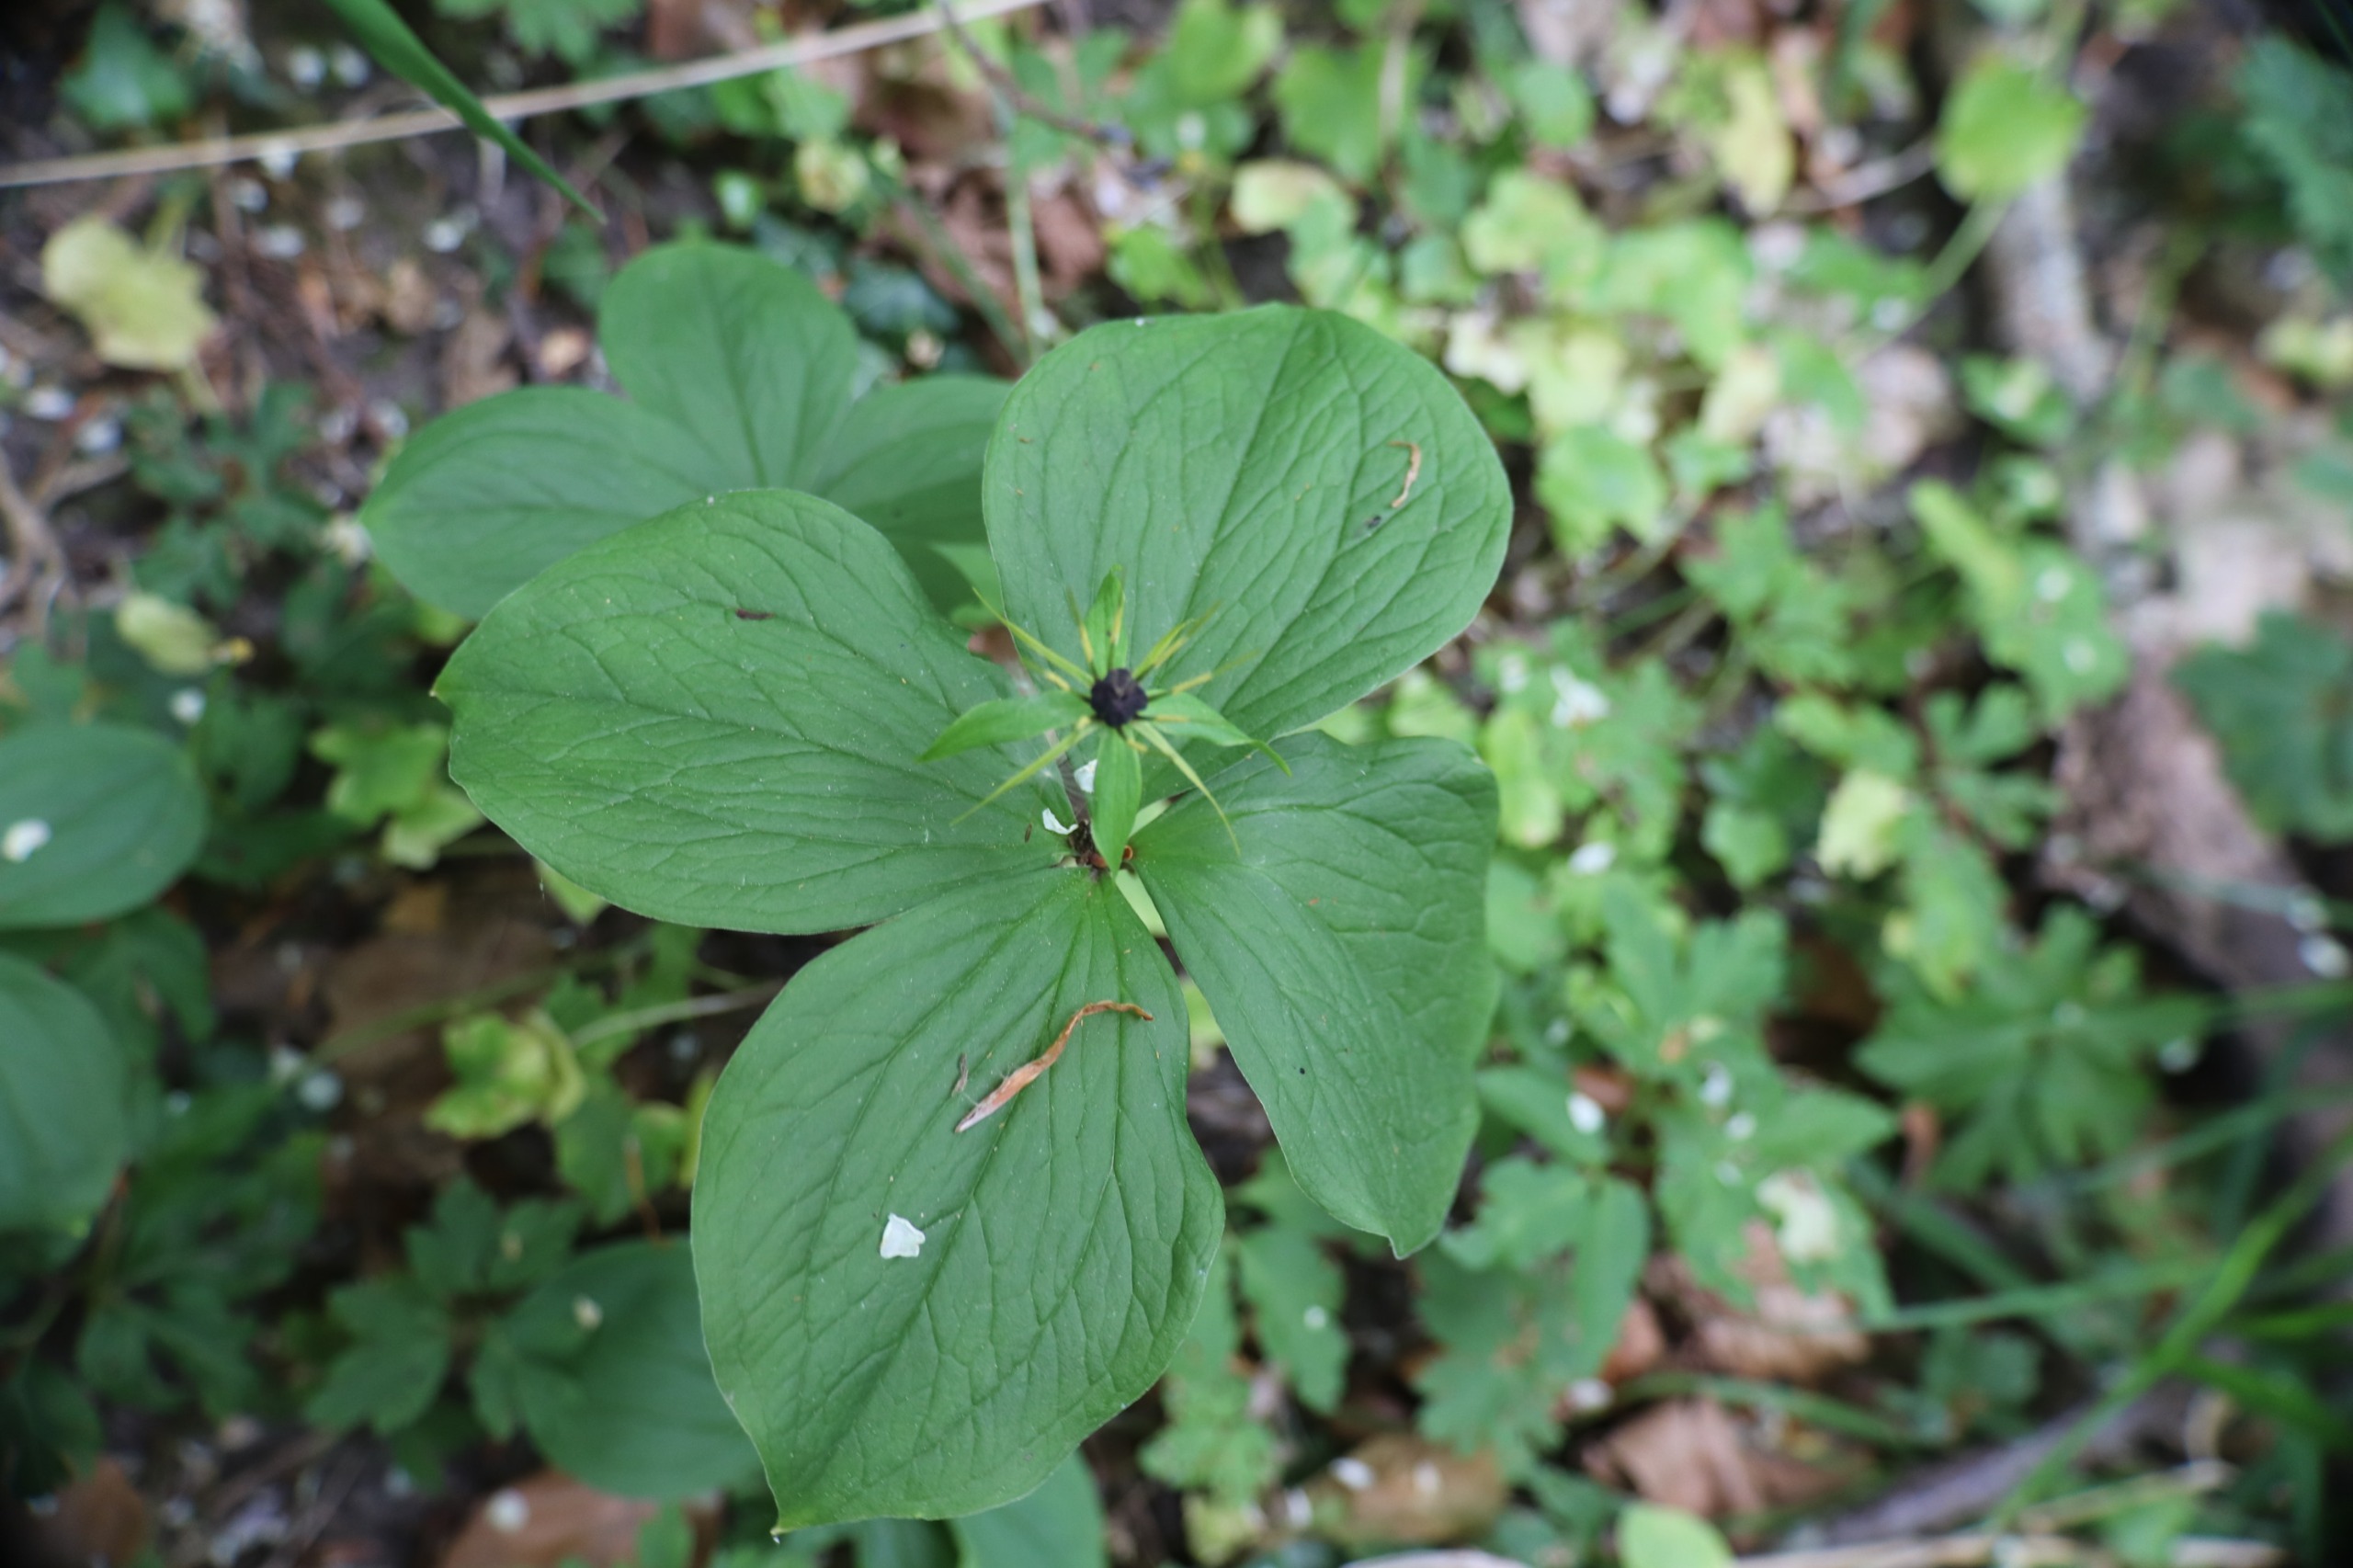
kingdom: Plantae
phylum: Tracheophyta
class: Liliopsida
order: Liliales
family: Melanthiaceae
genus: Paris
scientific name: Paris quadrifolia
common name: Firblad
